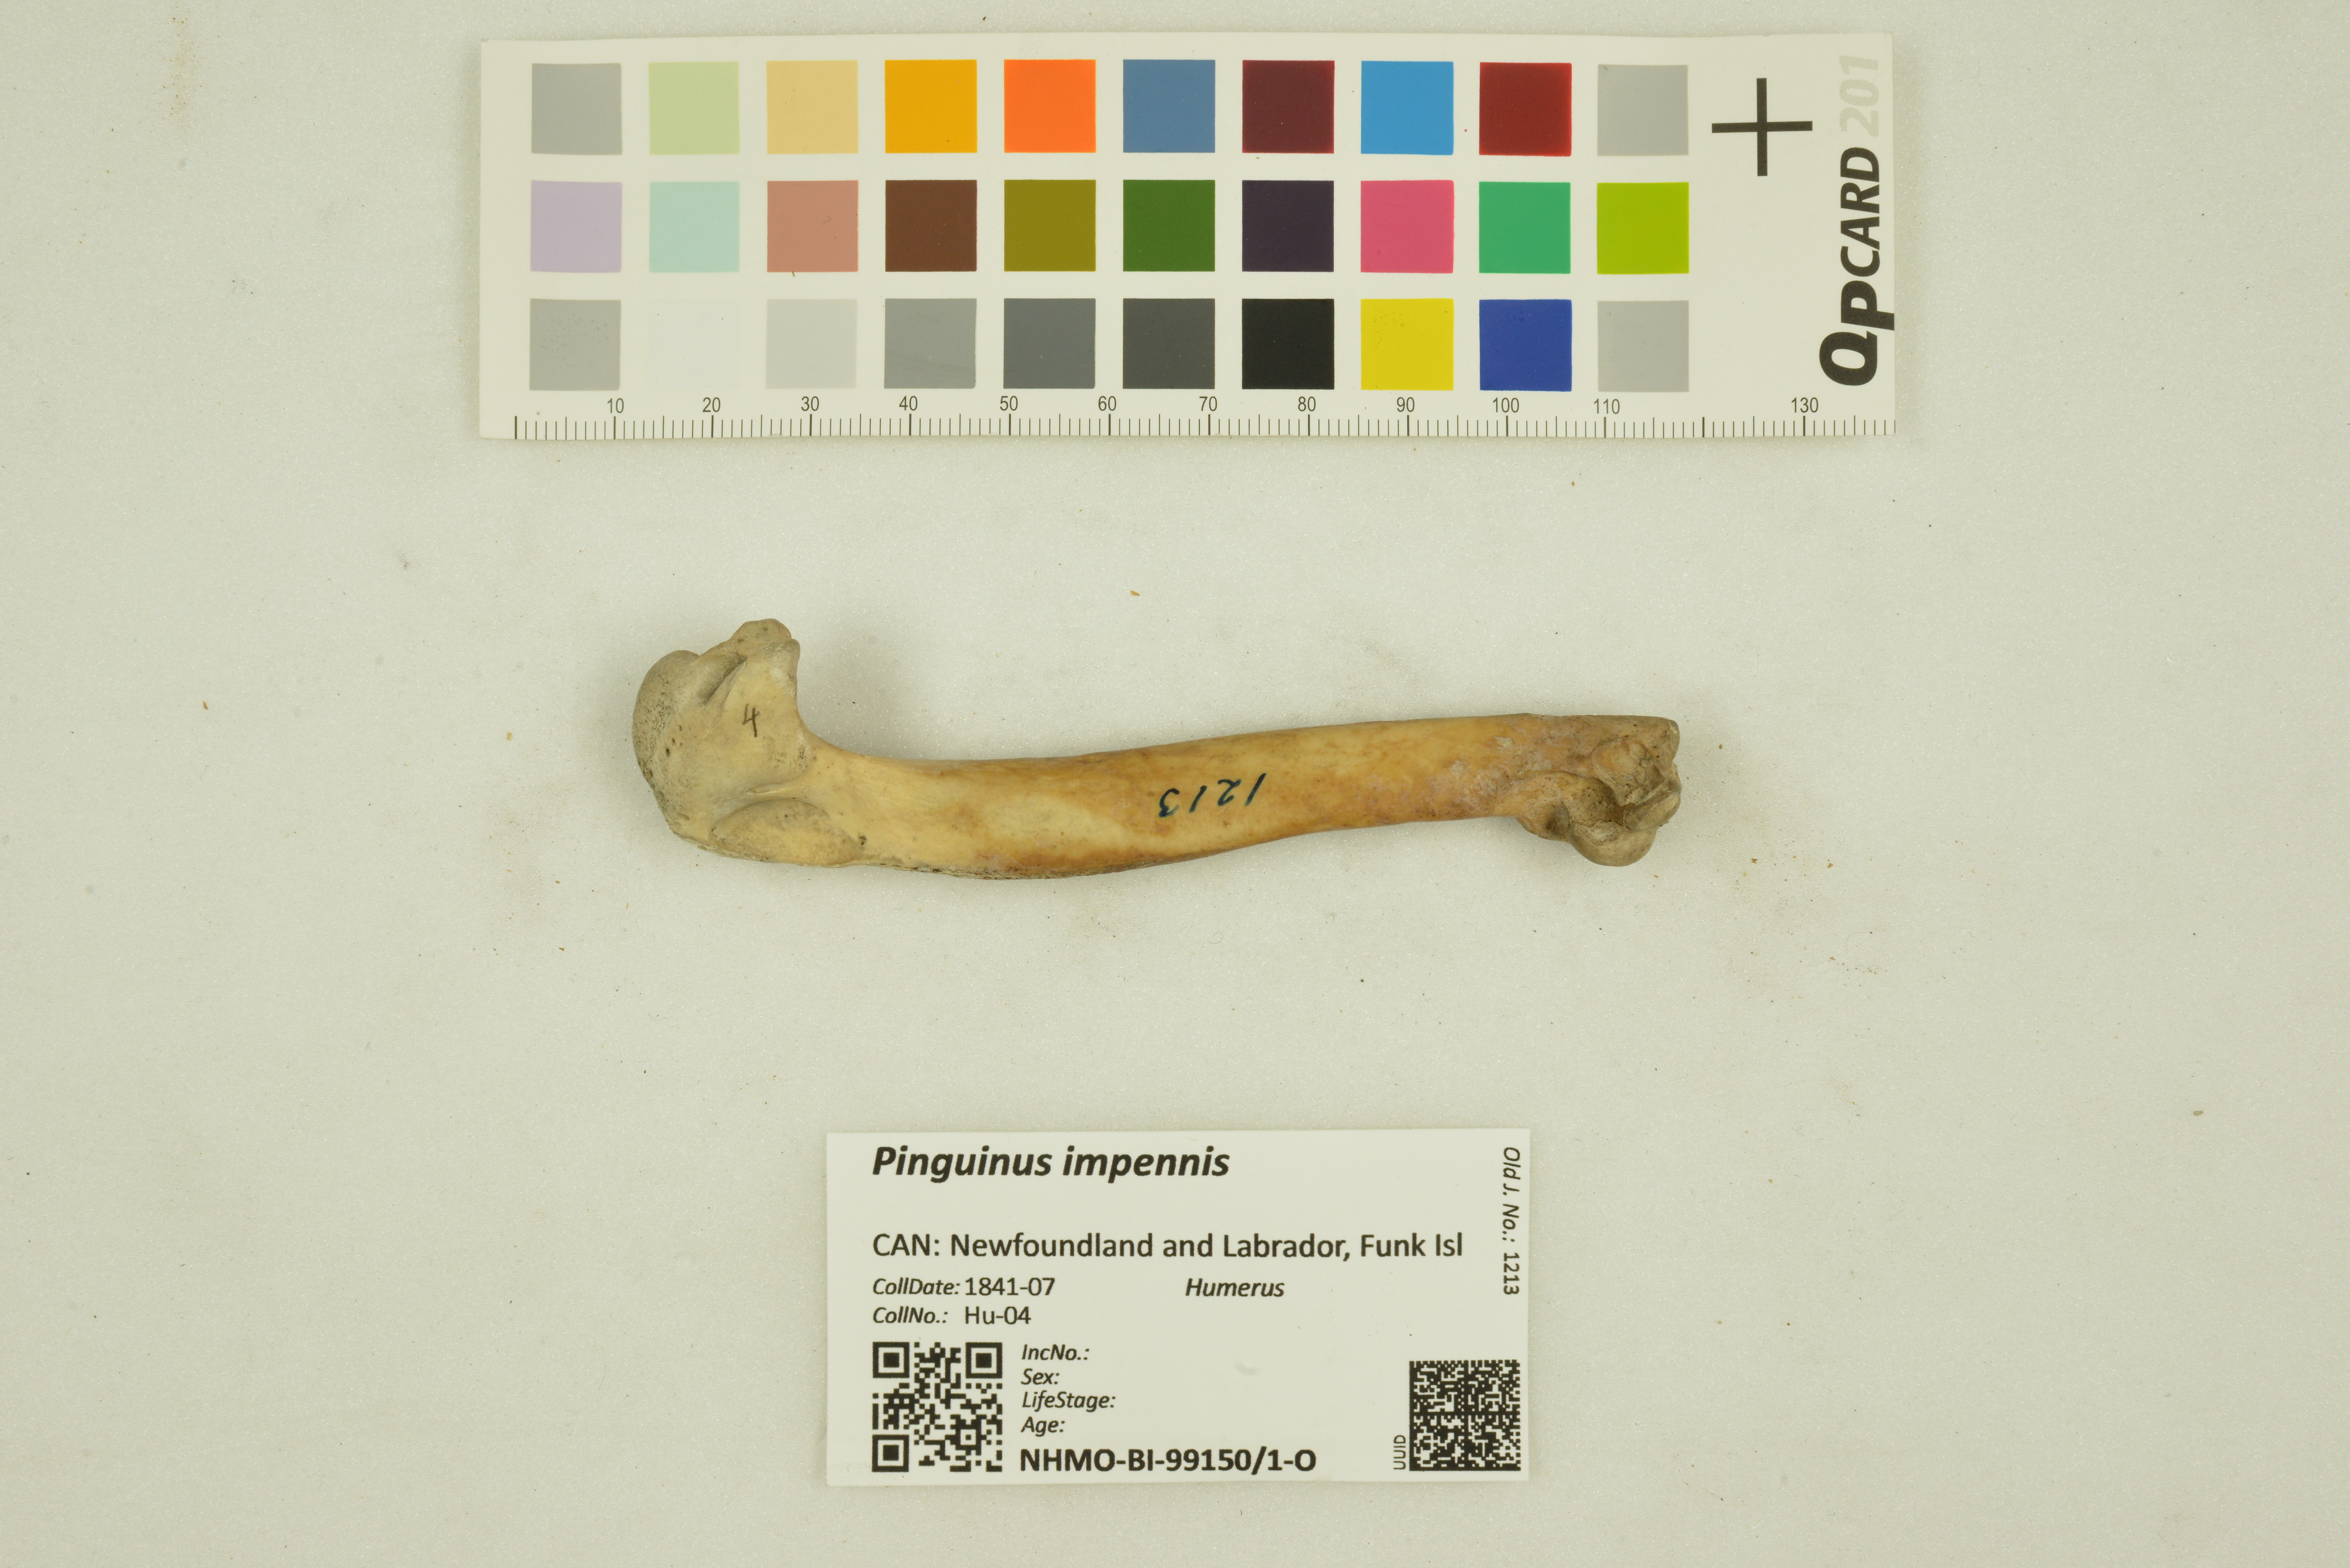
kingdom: Animalia
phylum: Chordata
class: Aves
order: Charadriiformes
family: Alcidae
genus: Pinguinus
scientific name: Pinguinus impennis
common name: Great auk
